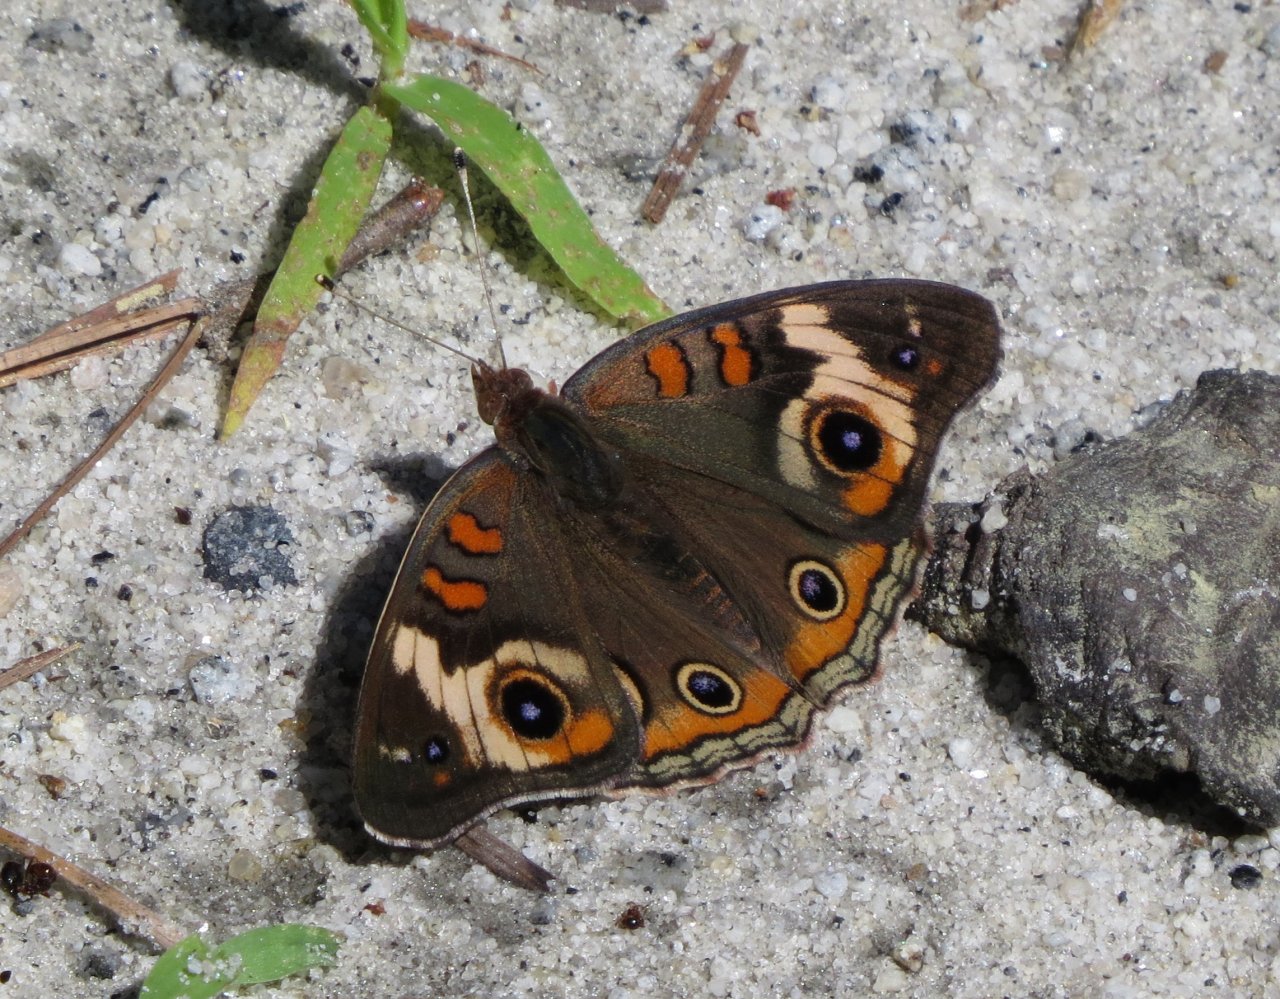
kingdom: Animalia
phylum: Arthropoda
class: Insecta
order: Lepidoptera
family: Nymphalidae
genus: Junonia
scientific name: Junonia coenia
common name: Common Buckeye
